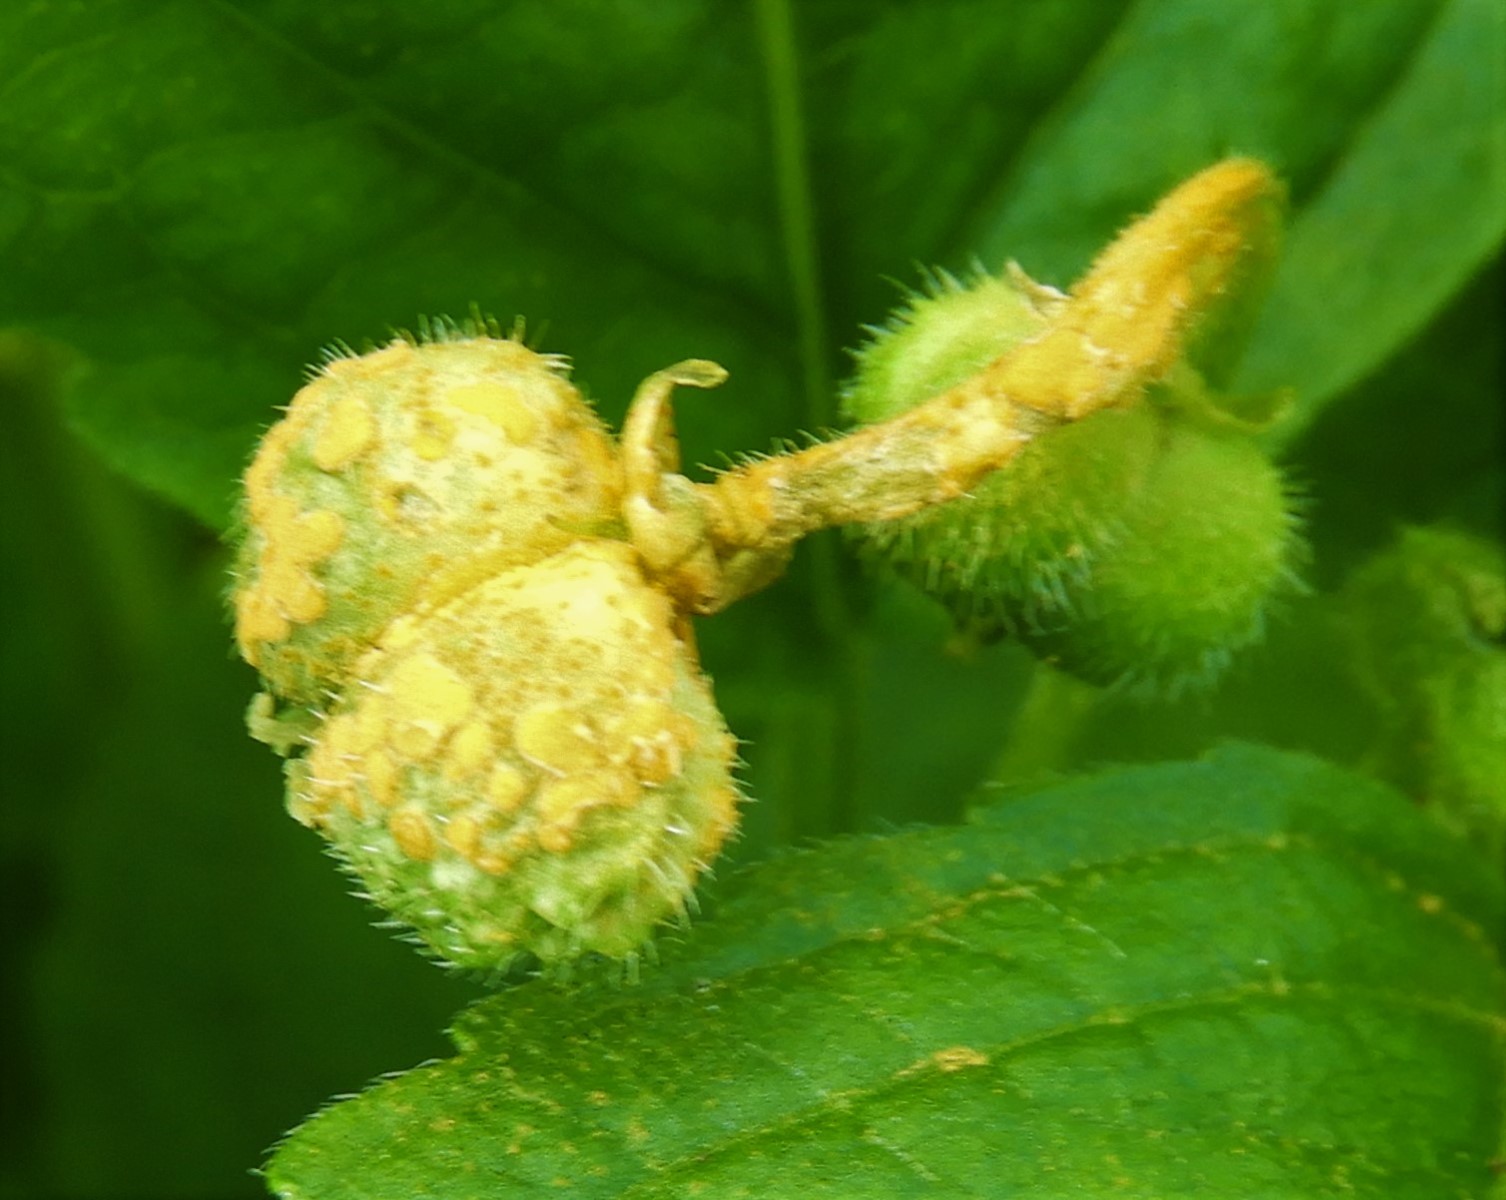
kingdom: Fungi
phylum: Basidiomycota
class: Pucciniomycetes
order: Pucciniales
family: Melampsoraceae
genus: Melampsora
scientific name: Melampsora populnea
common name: poppel-skorperust
